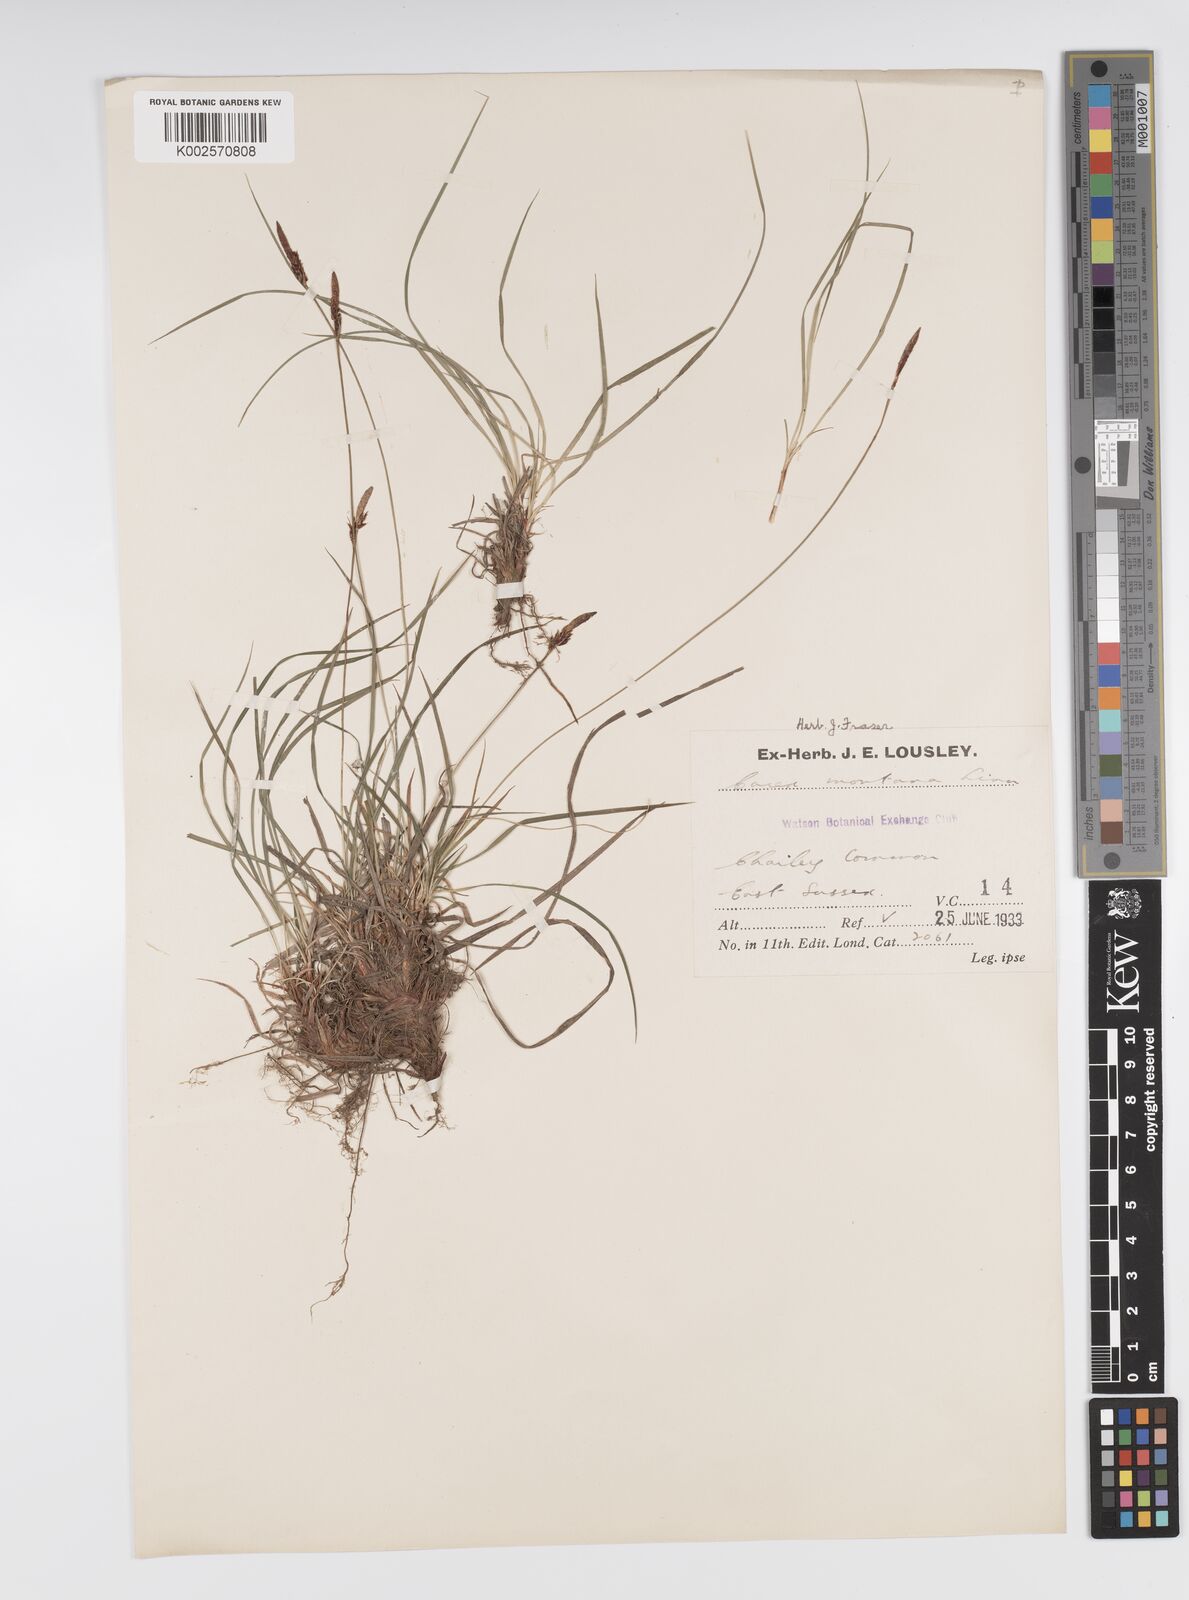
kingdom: Plantae
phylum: Tracheophyta
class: Liliopsida
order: Poales
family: Cyperaceae
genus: Carex
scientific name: Carex montana
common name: Soft-leaved sedge
